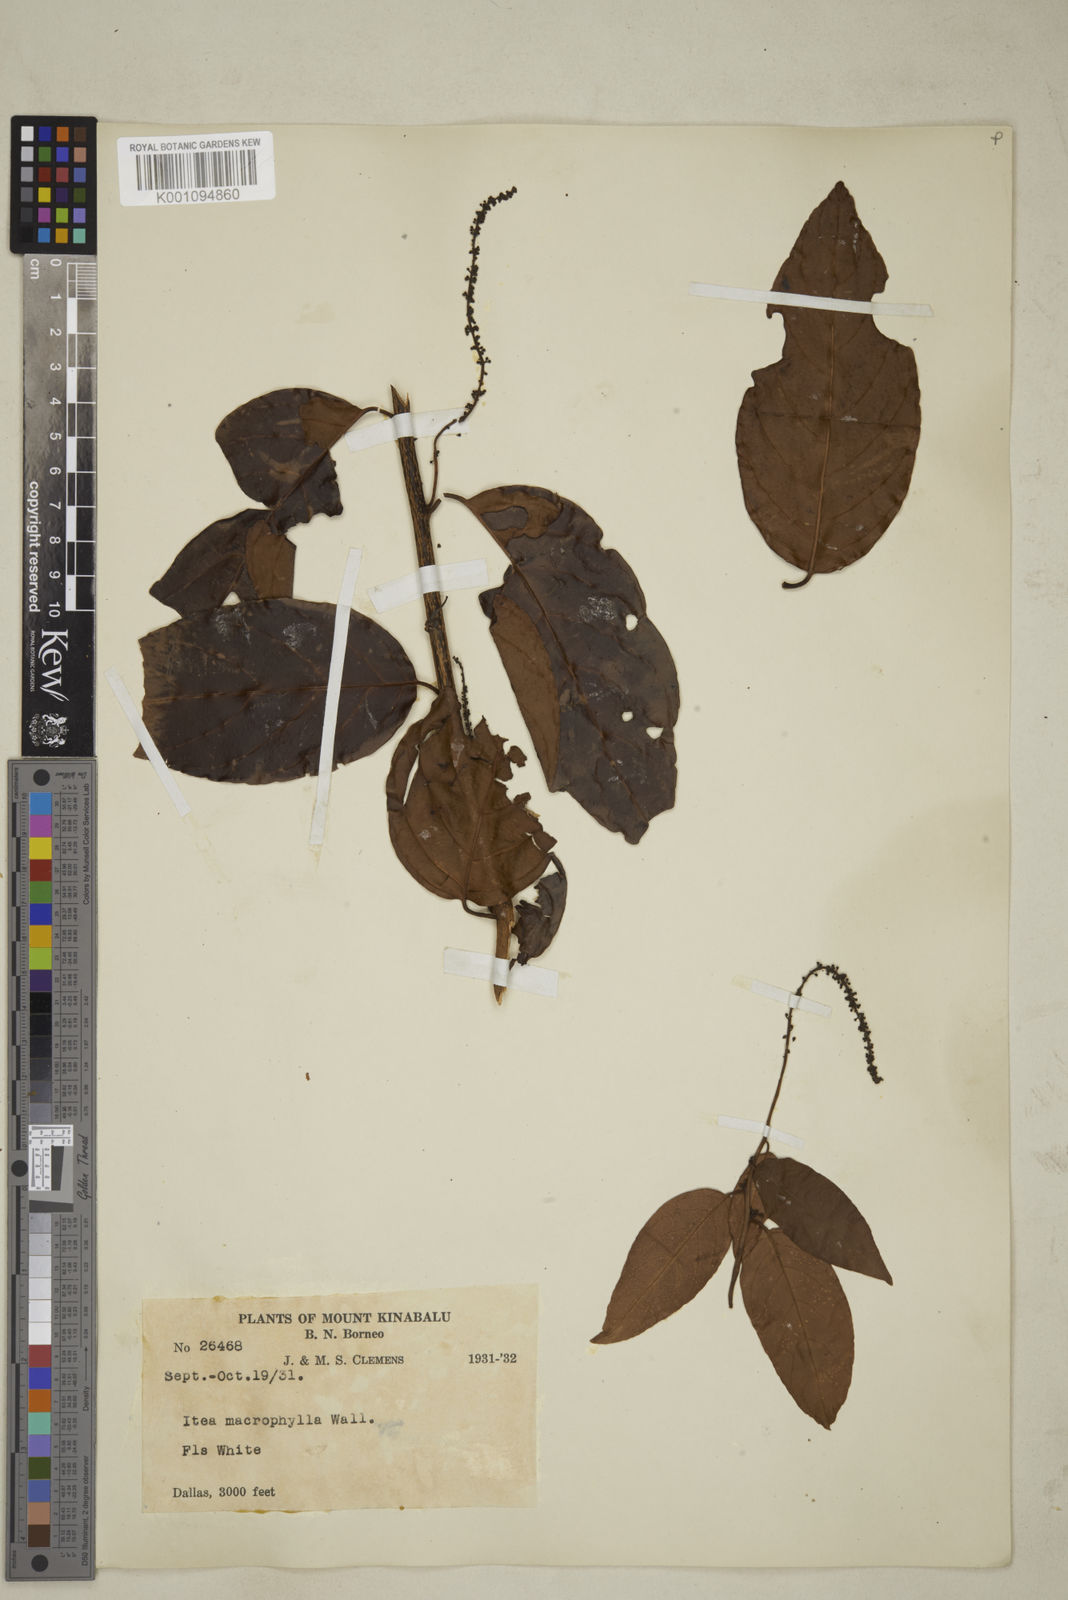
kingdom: Plantae
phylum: Tracheophyta
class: Magnoliopsida
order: Saxifragales
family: Iteaceae
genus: Itea
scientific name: Itea macrophylla
